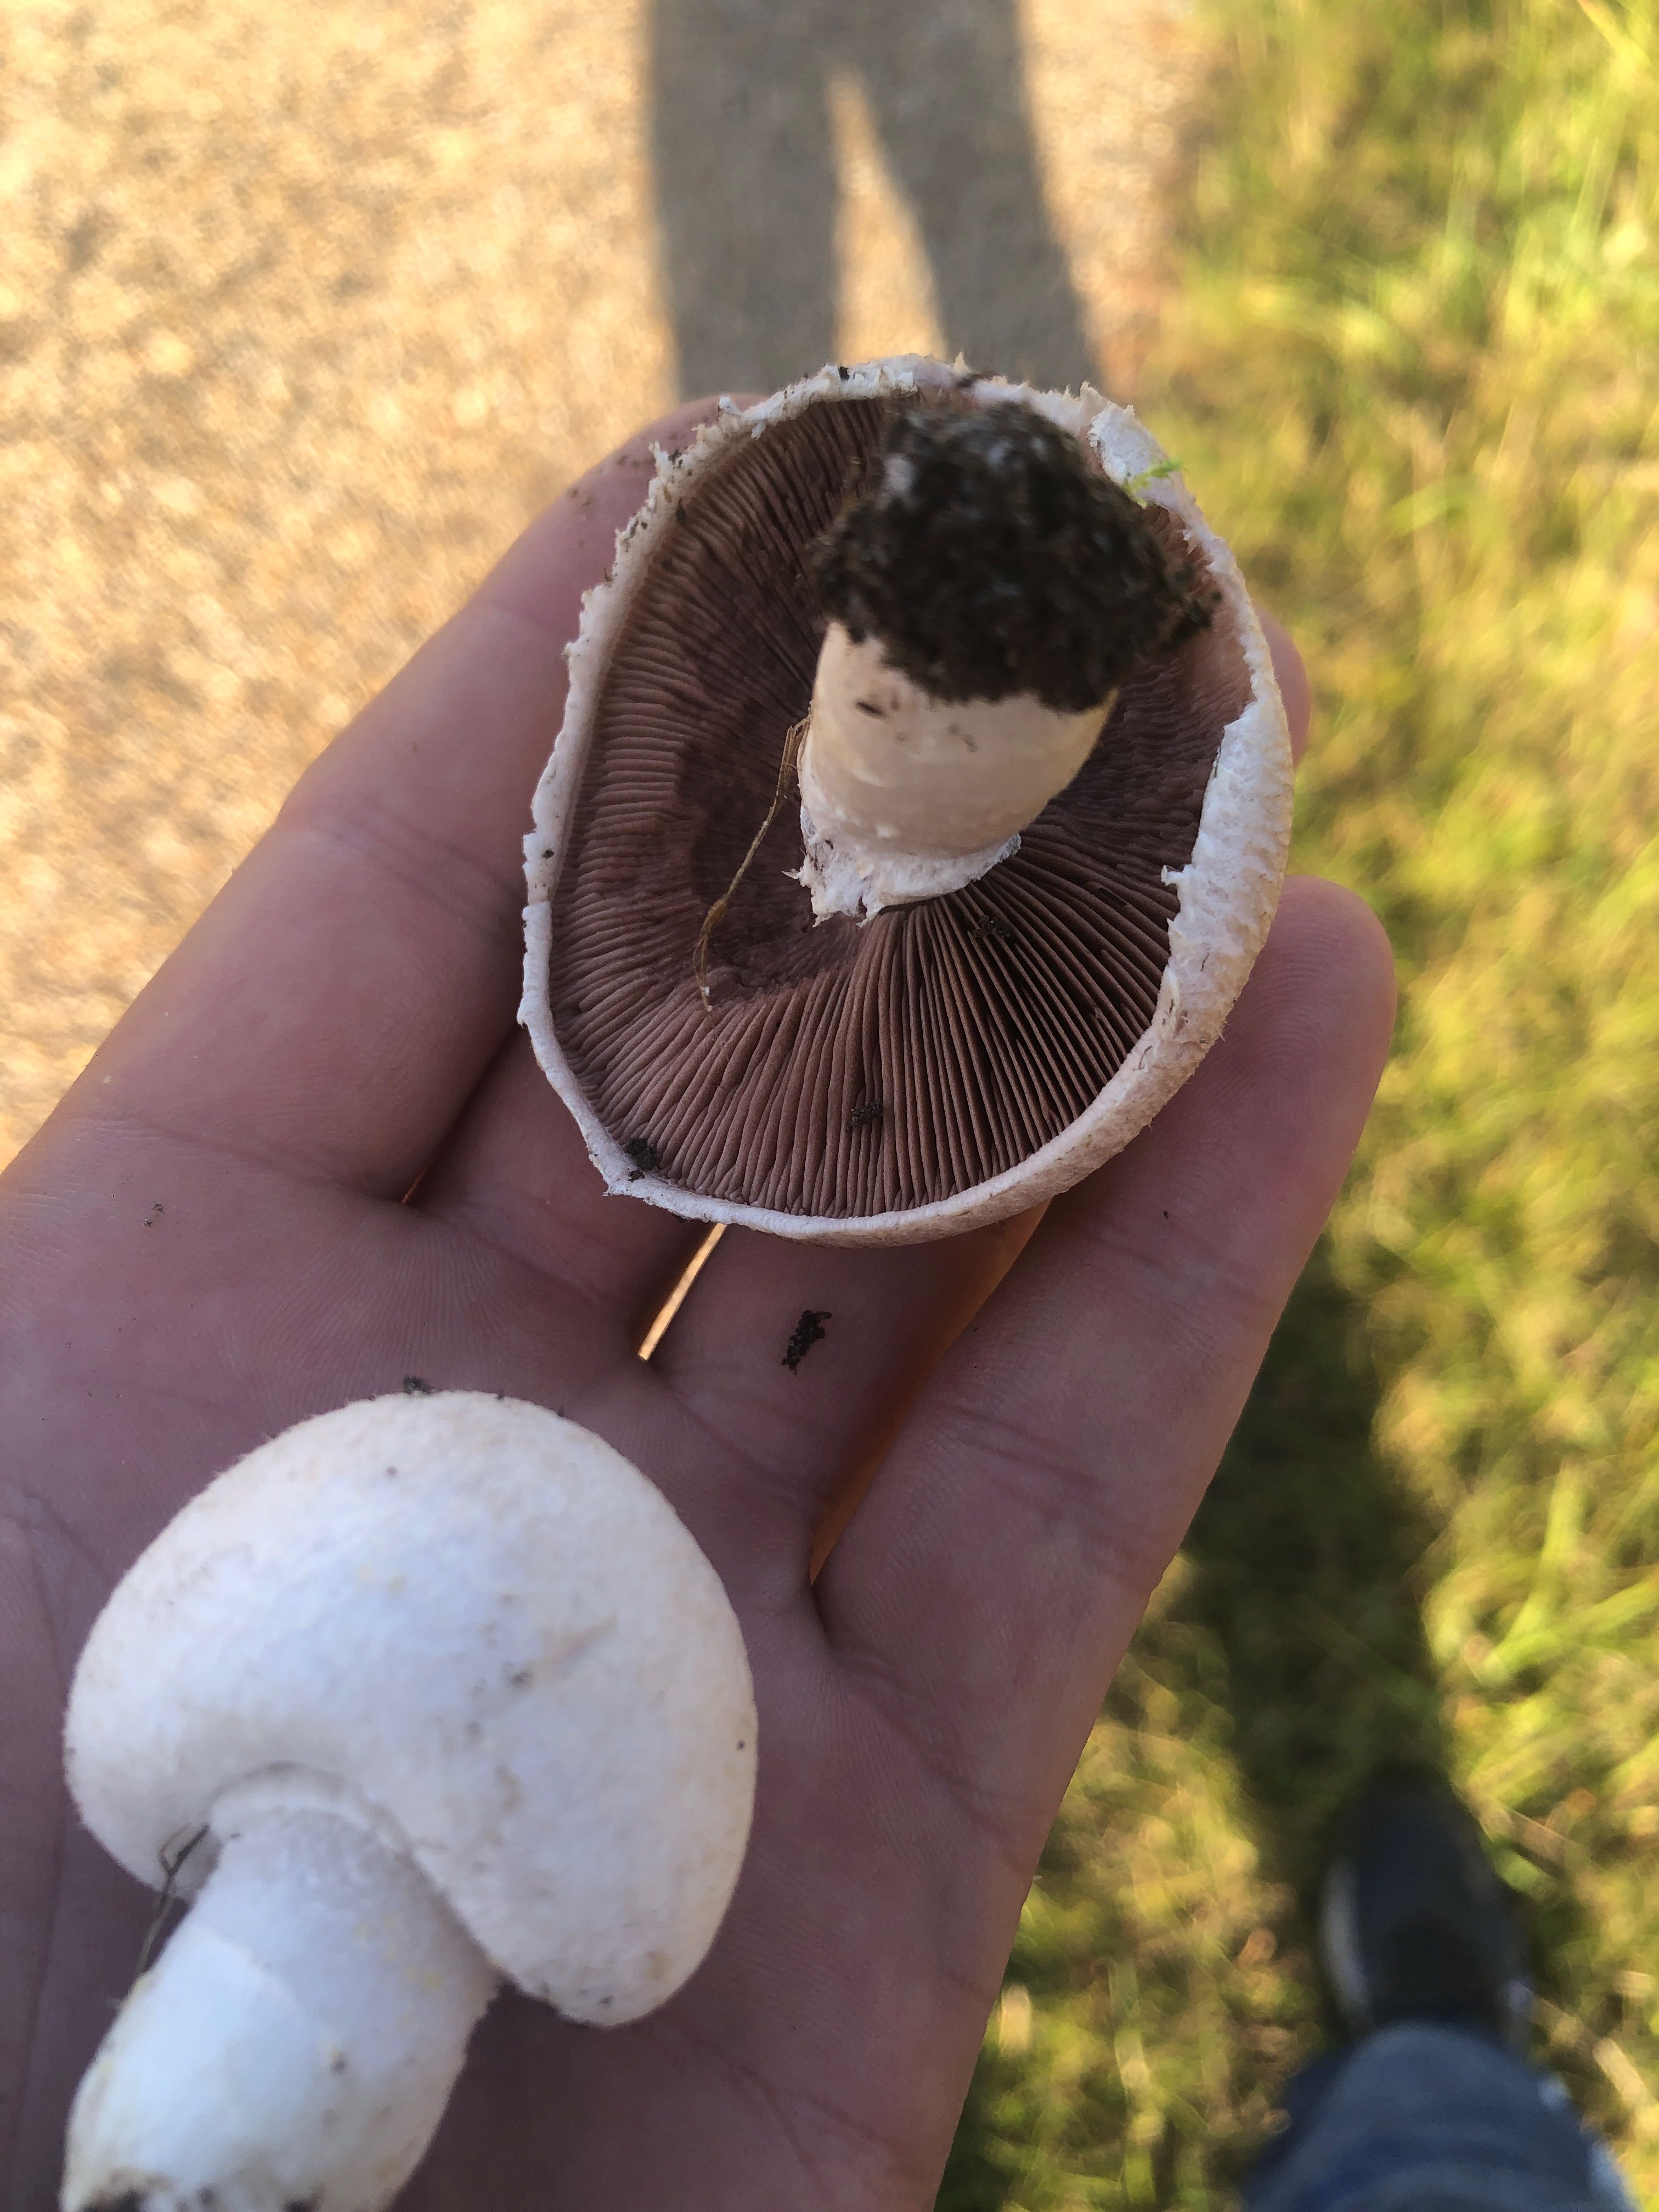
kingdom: Fungi
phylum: Basidiomycota
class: Agaricomycetes
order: Agaricales
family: Agaricaceae
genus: Agaricus
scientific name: Agaricus
